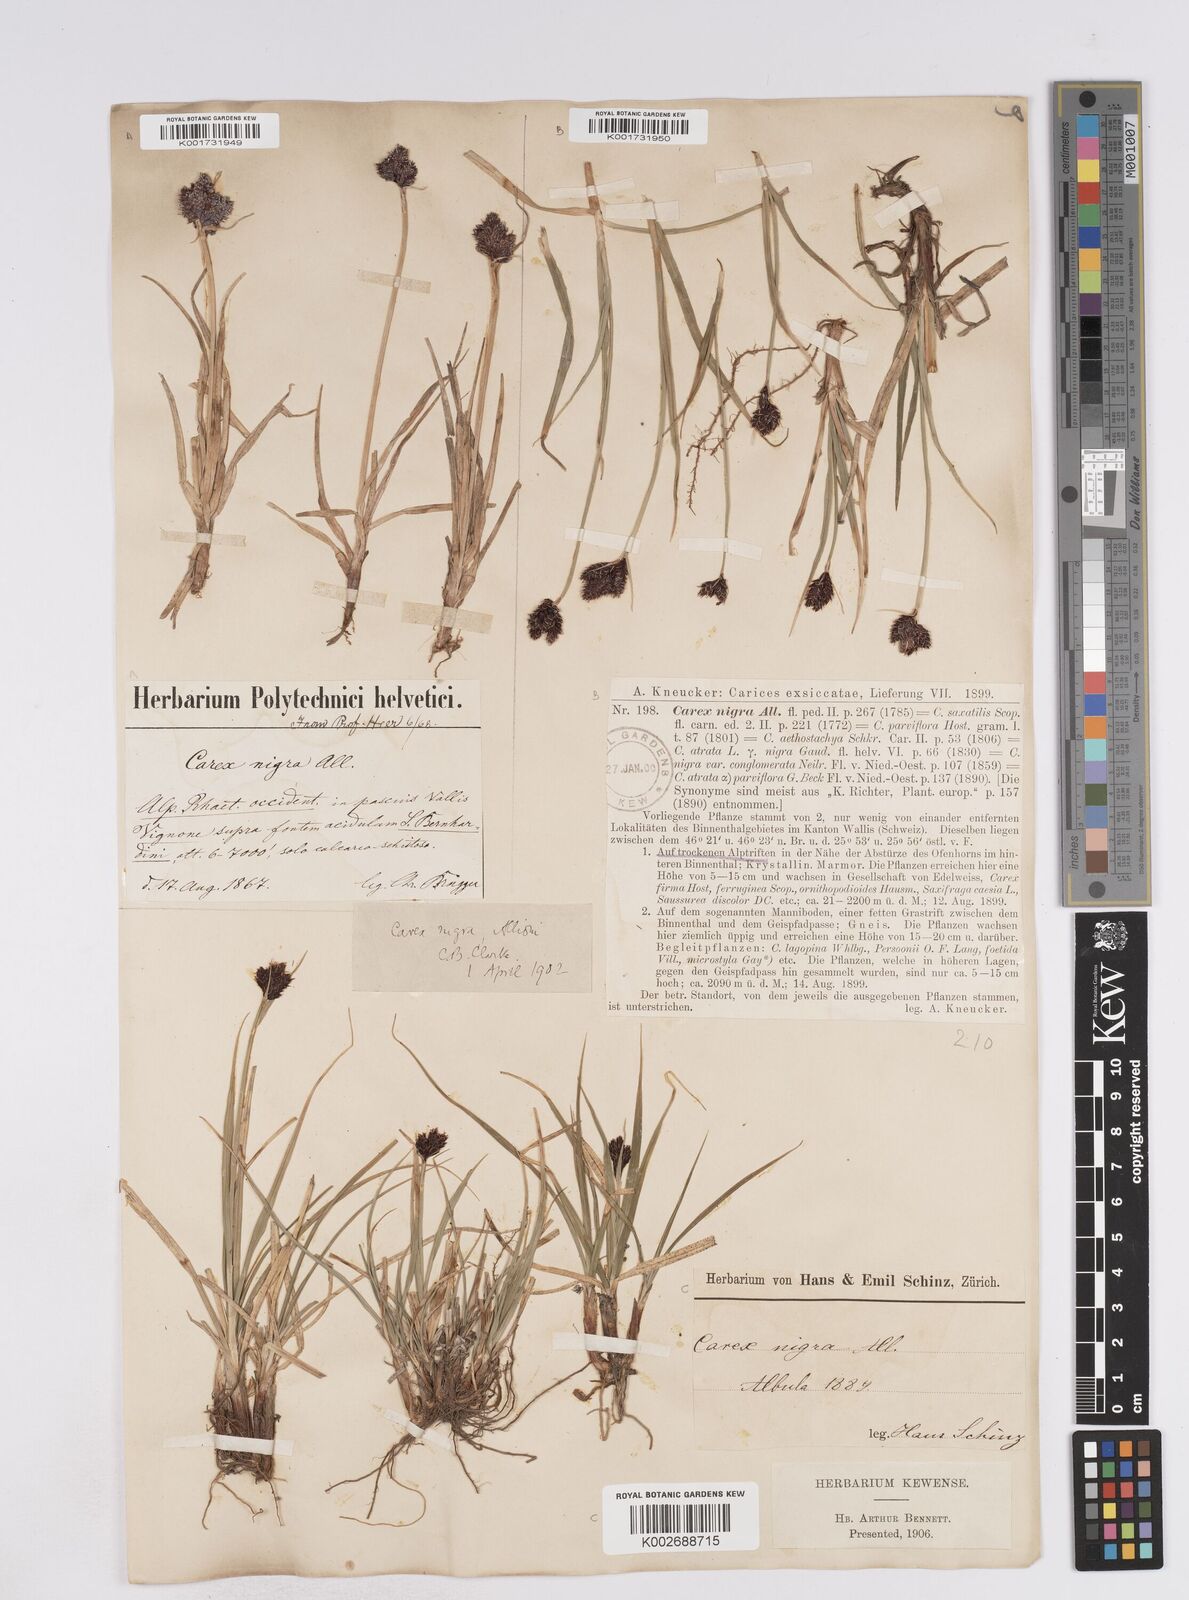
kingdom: Plantae
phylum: Tracheophyta
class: Liliopsida
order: Poales
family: Cyperaceae
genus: Carex
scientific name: Carex parviflora
